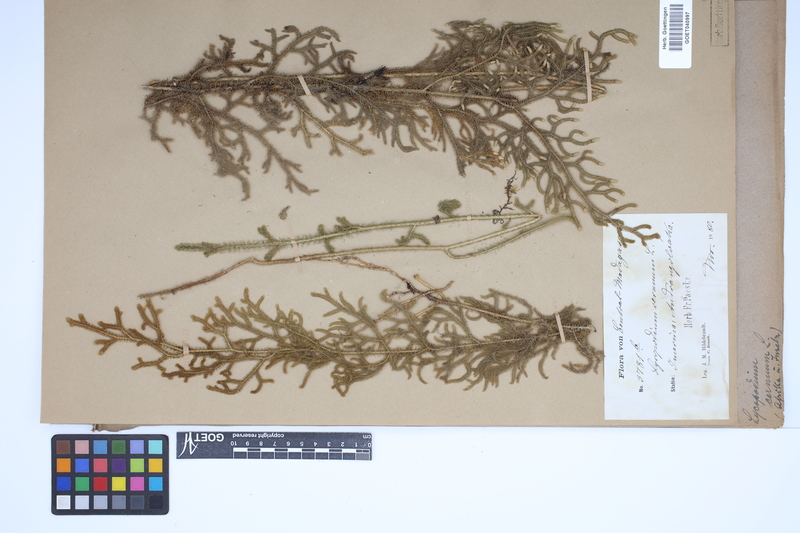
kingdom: Plantae
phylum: Tracheophyta
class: Lycopodiopsida
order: Lycopodiales
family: Lycopodiaceae
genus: Palhinhaea
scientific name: Palhinhaea cernua
